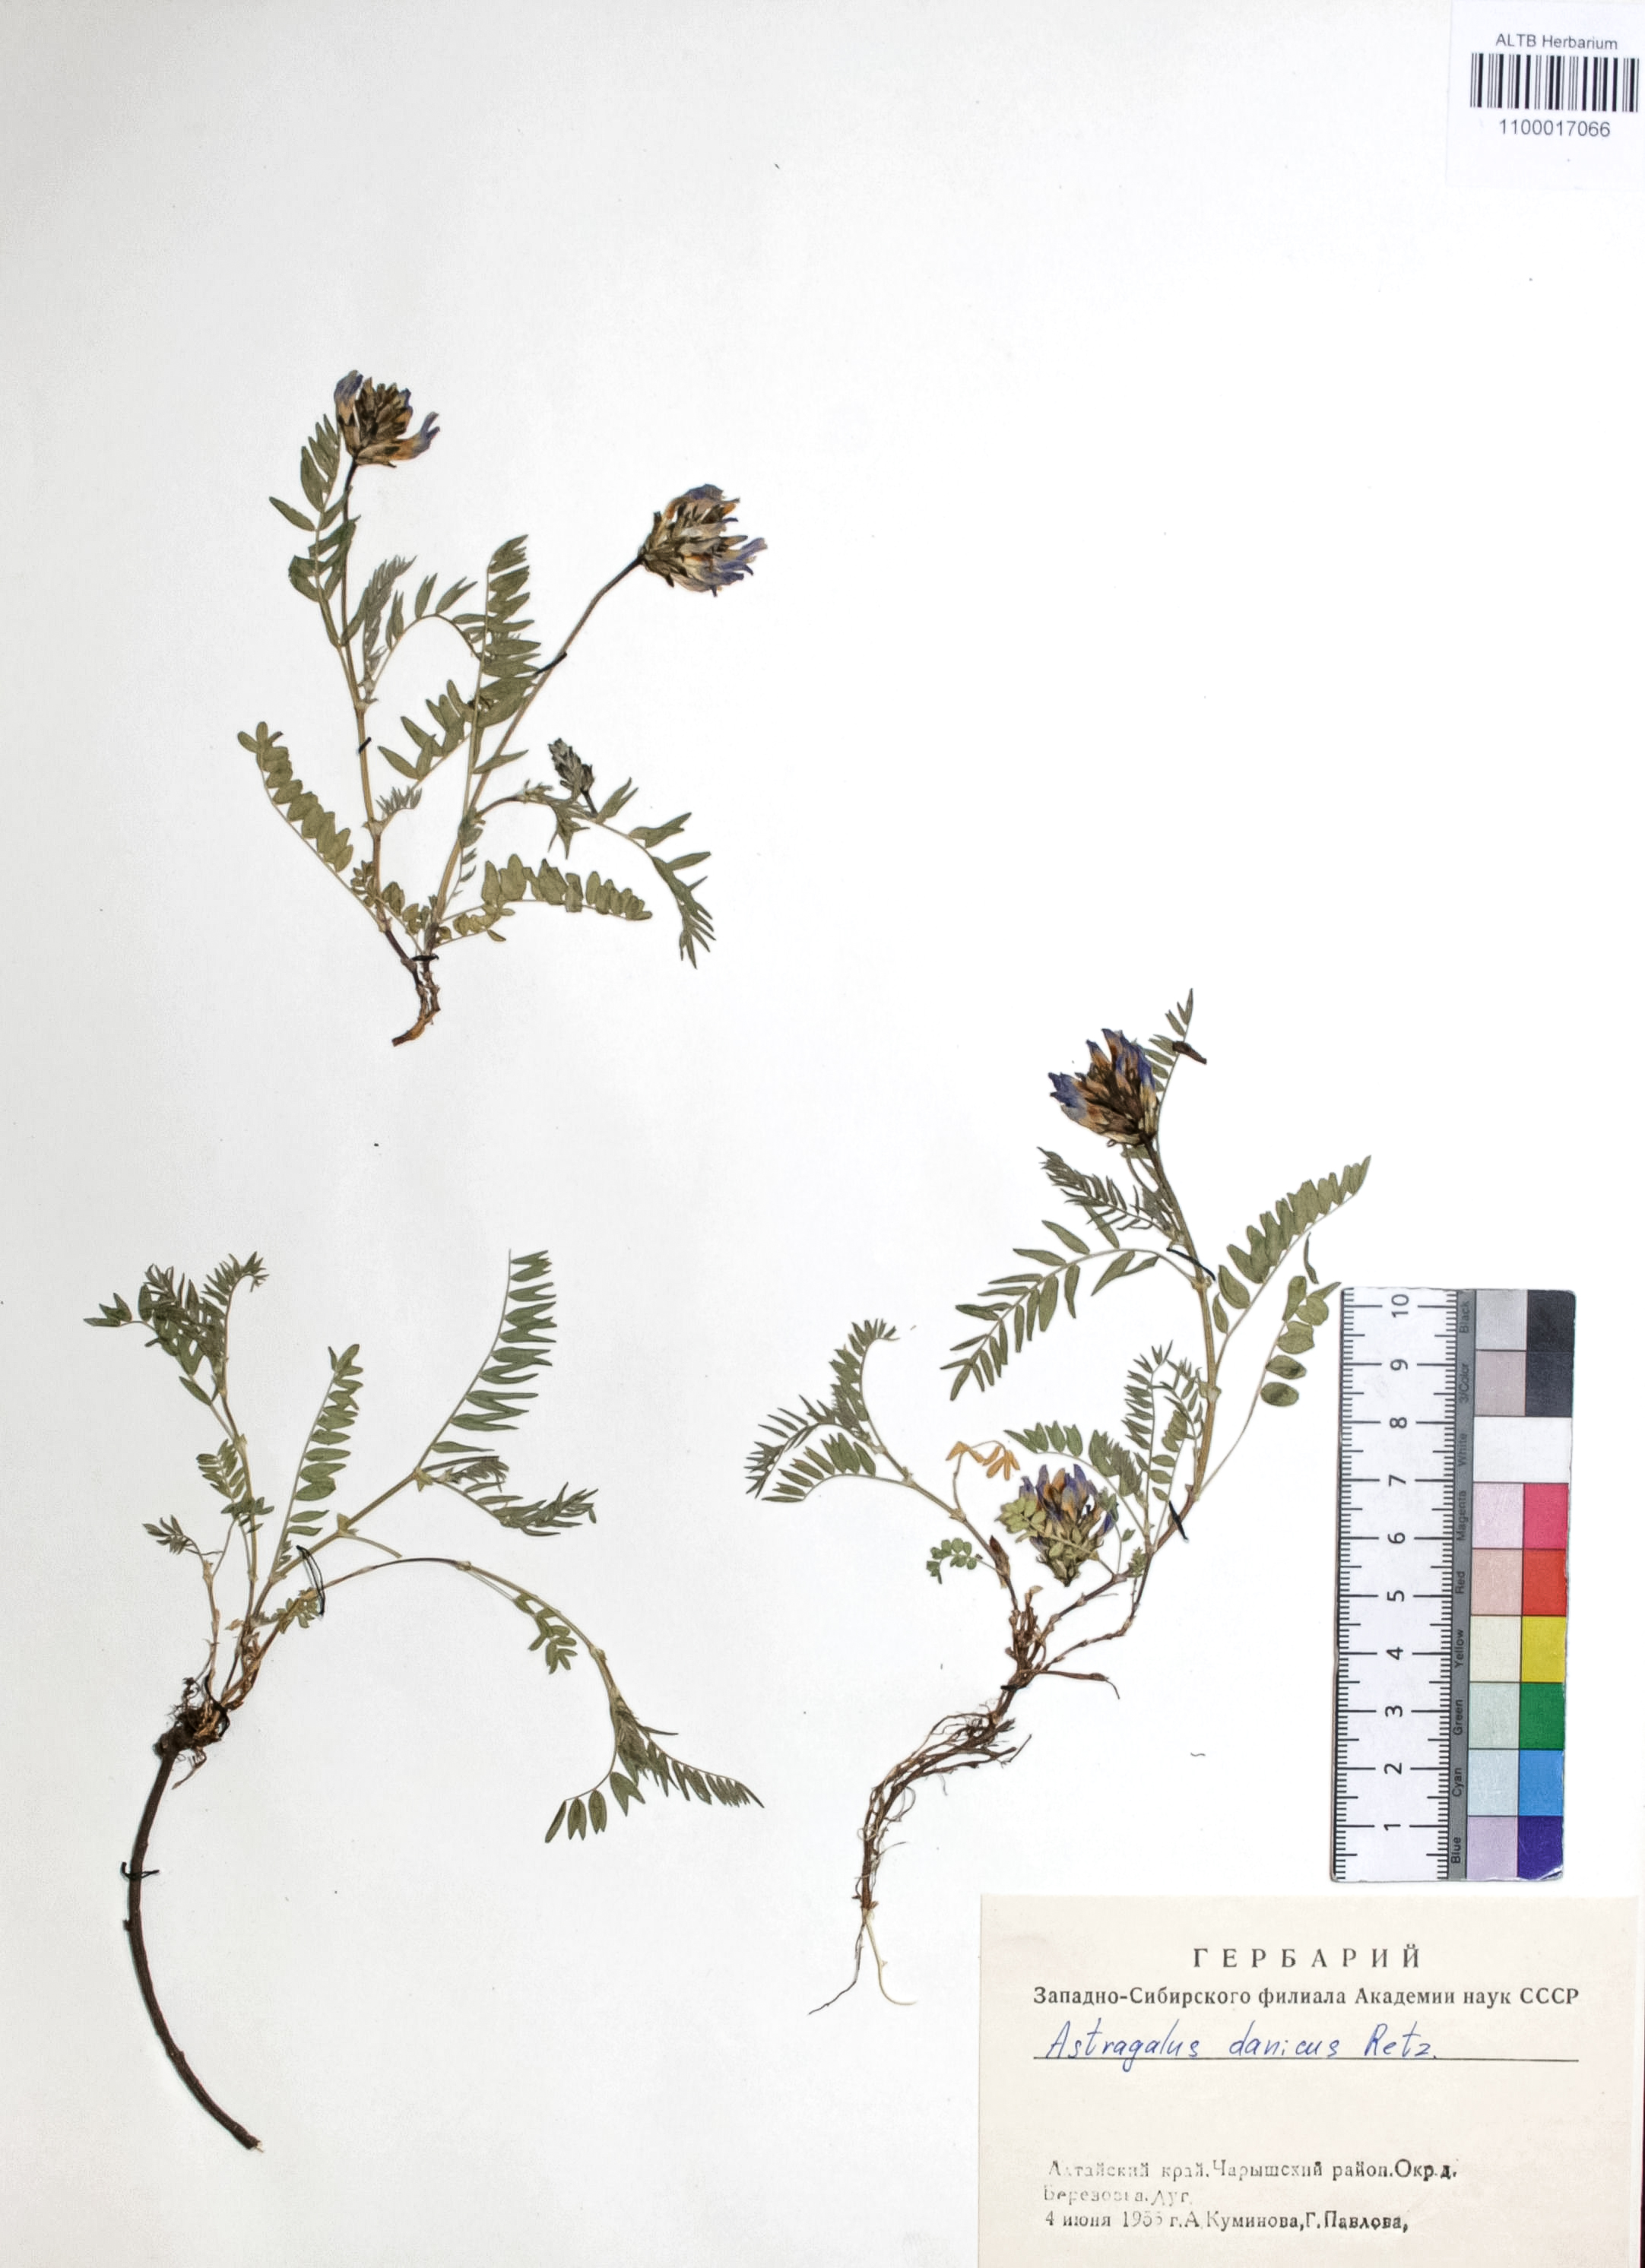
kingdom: Plantae
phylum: Tracheophyta
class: Magnoliopsida
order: Fabales
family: Fabaceae
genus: Astragalus
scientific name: Astragalus danicus
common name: Purple milk-vetch
